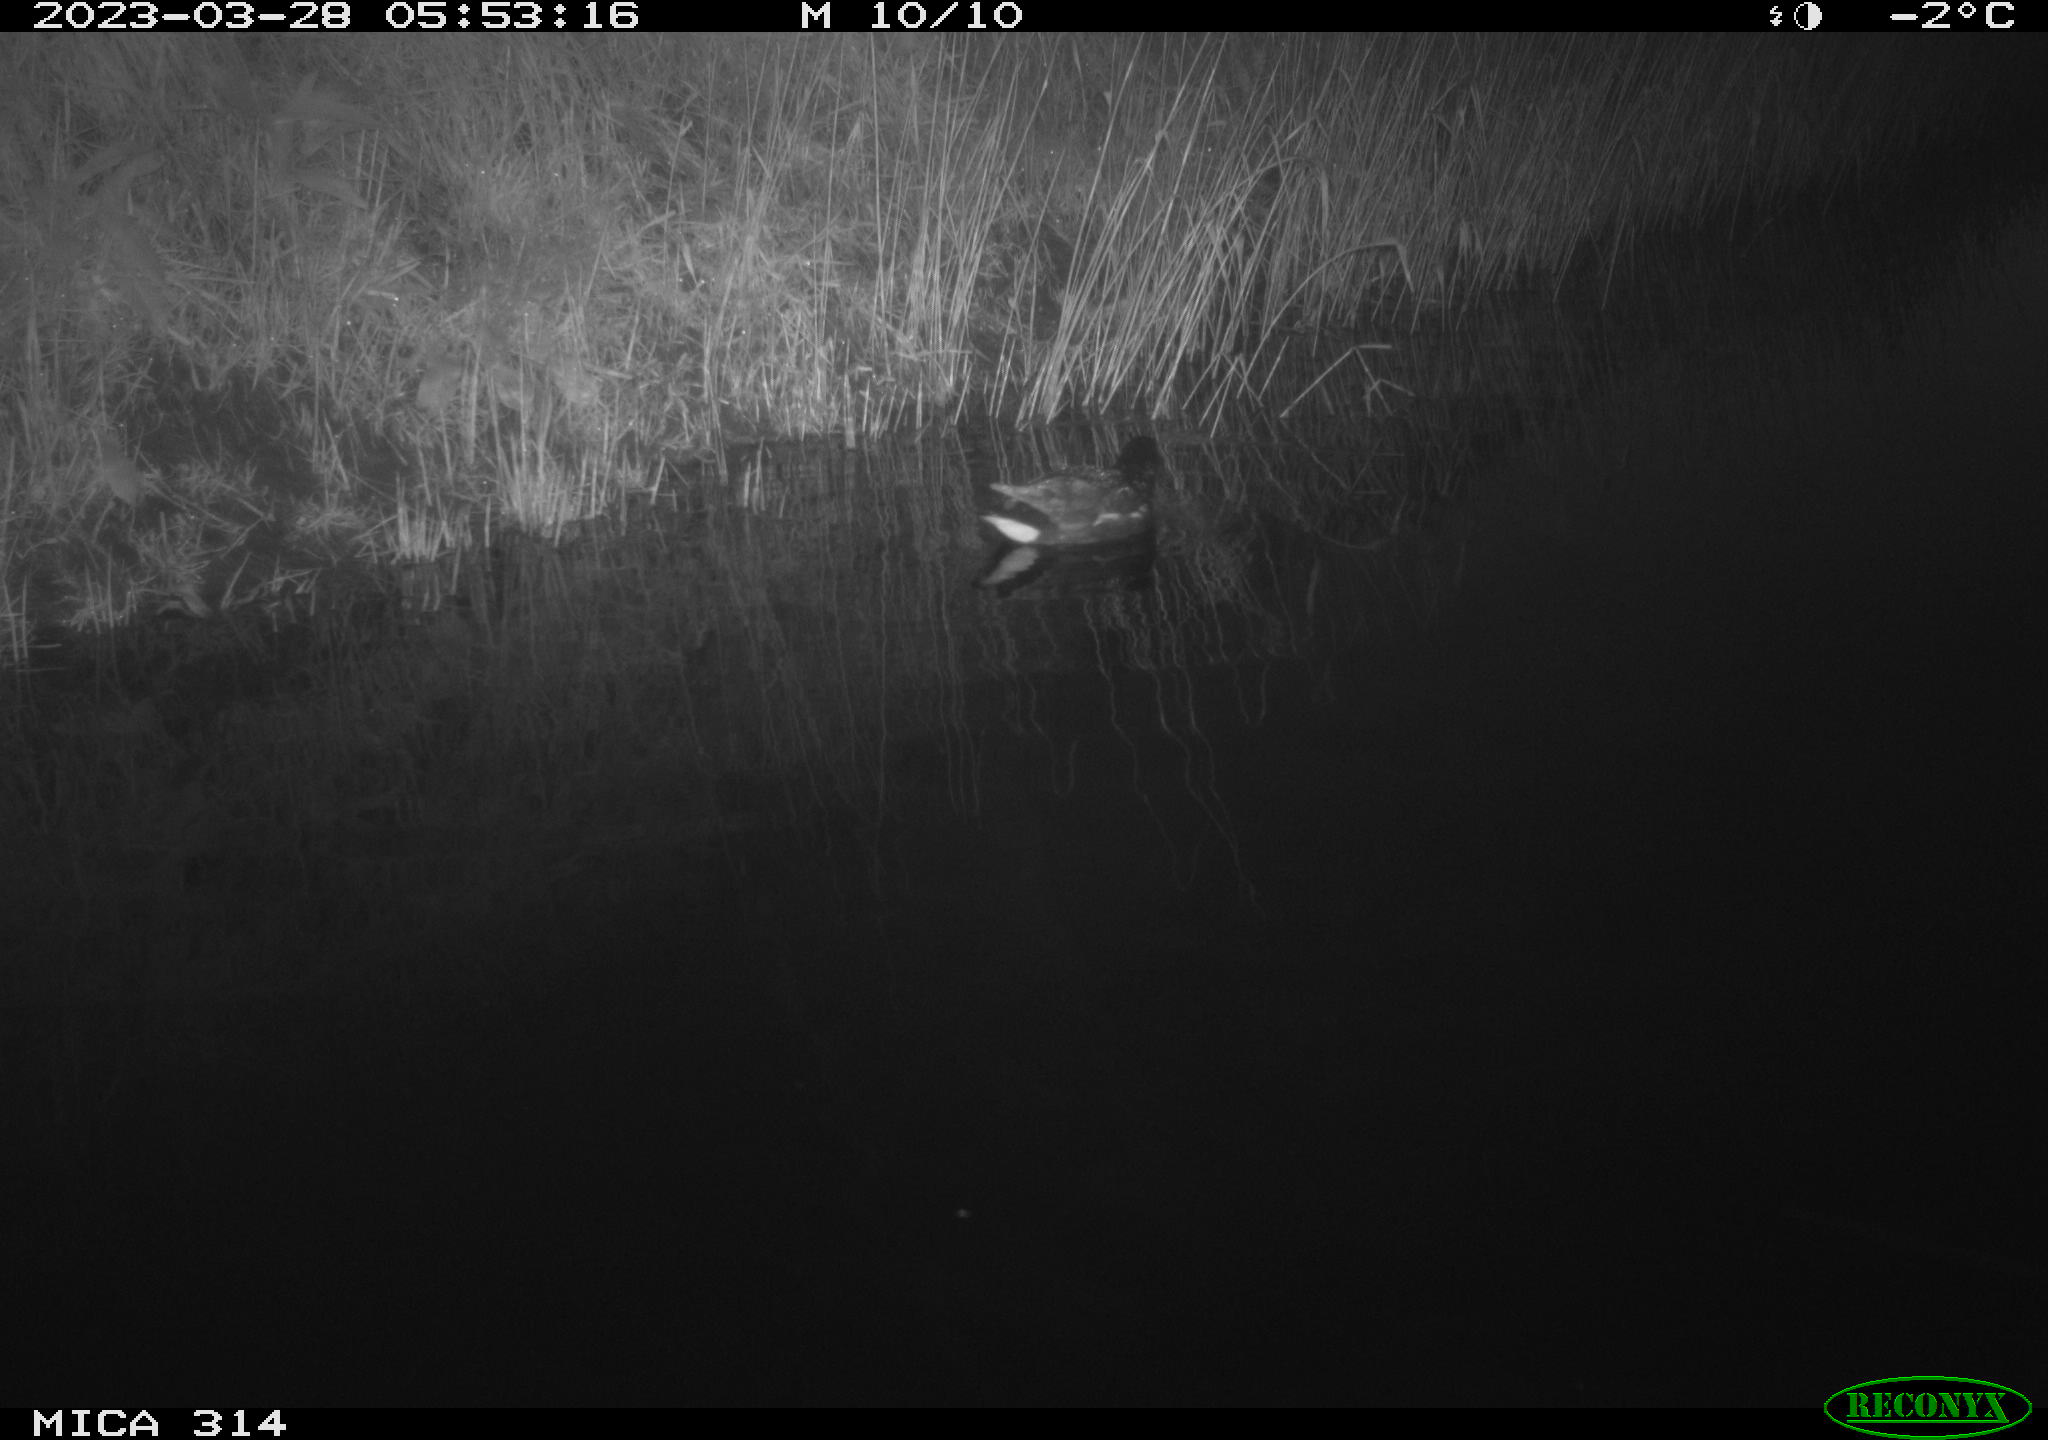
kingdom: Animalia
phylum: Chordata
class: Aves
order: Gruiformes
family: Rallidae
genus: Gallinula
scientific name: Gallinula chloropus
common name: Common moorhen
